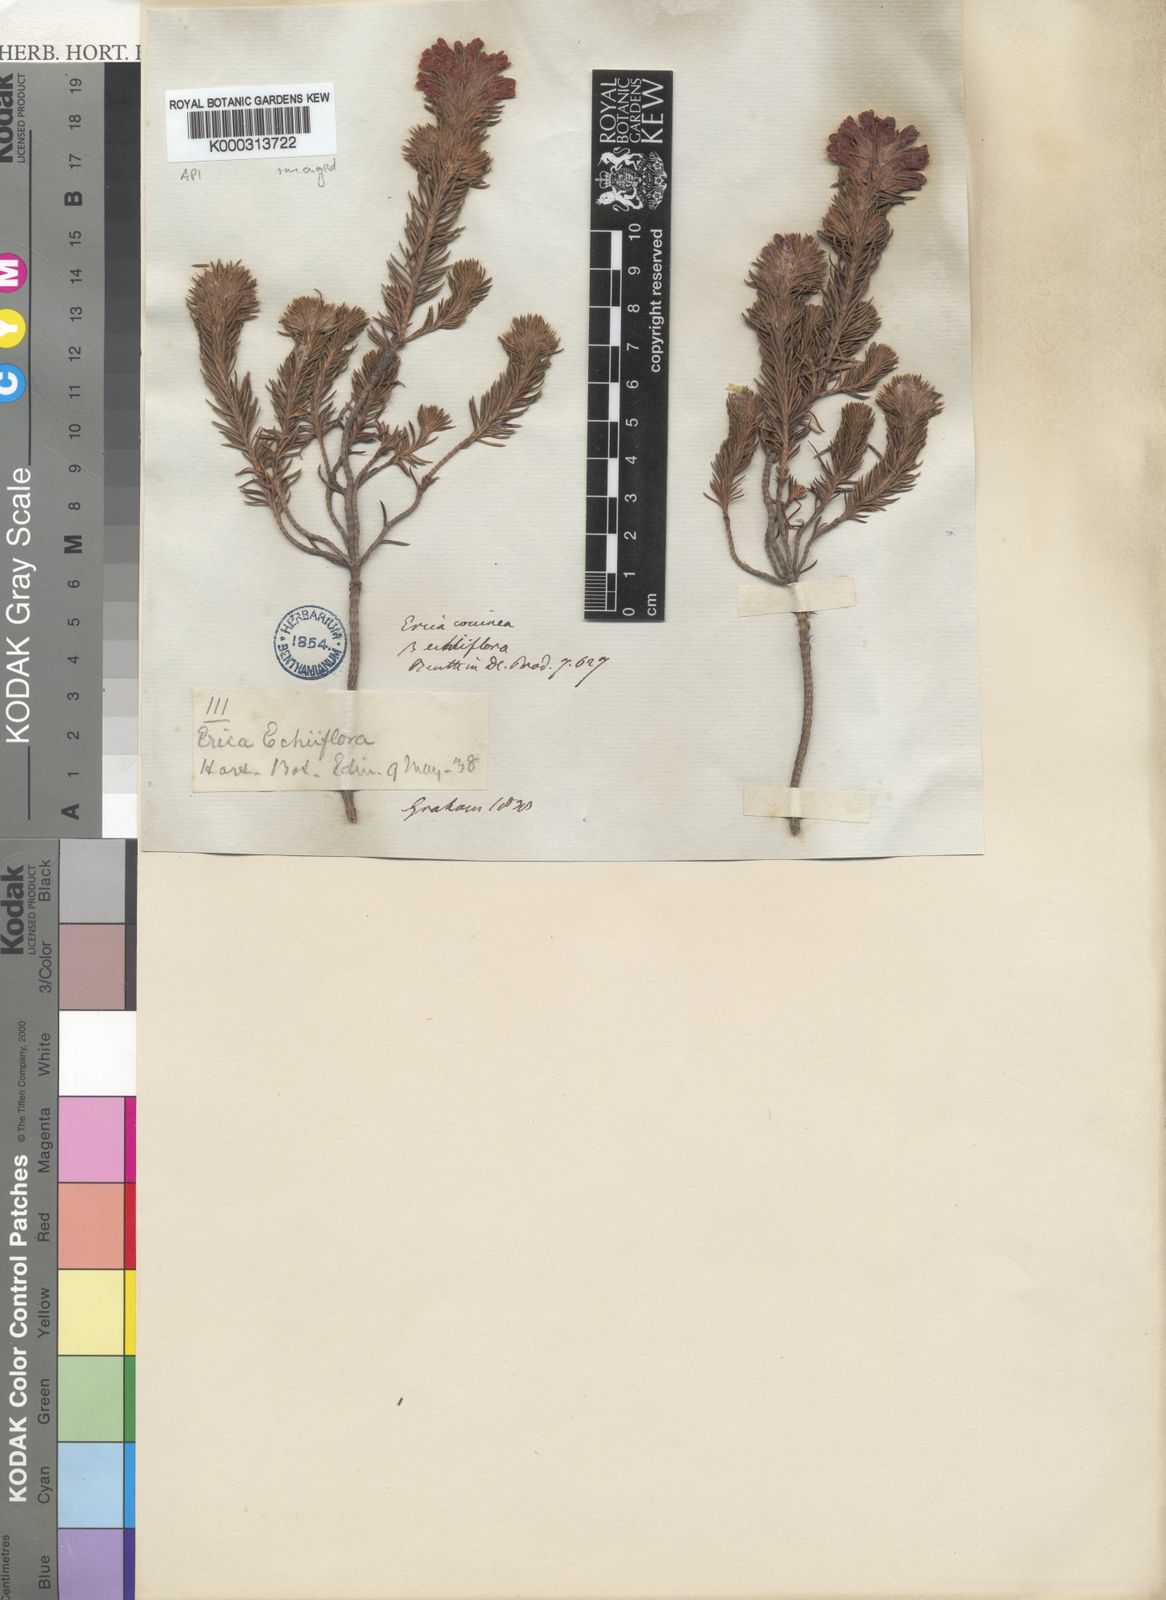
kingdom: Plantae
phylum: Tracheophyta
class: Magnoliopsida
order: Ericales
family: Ericaceae
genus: Erica
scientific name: Erica
